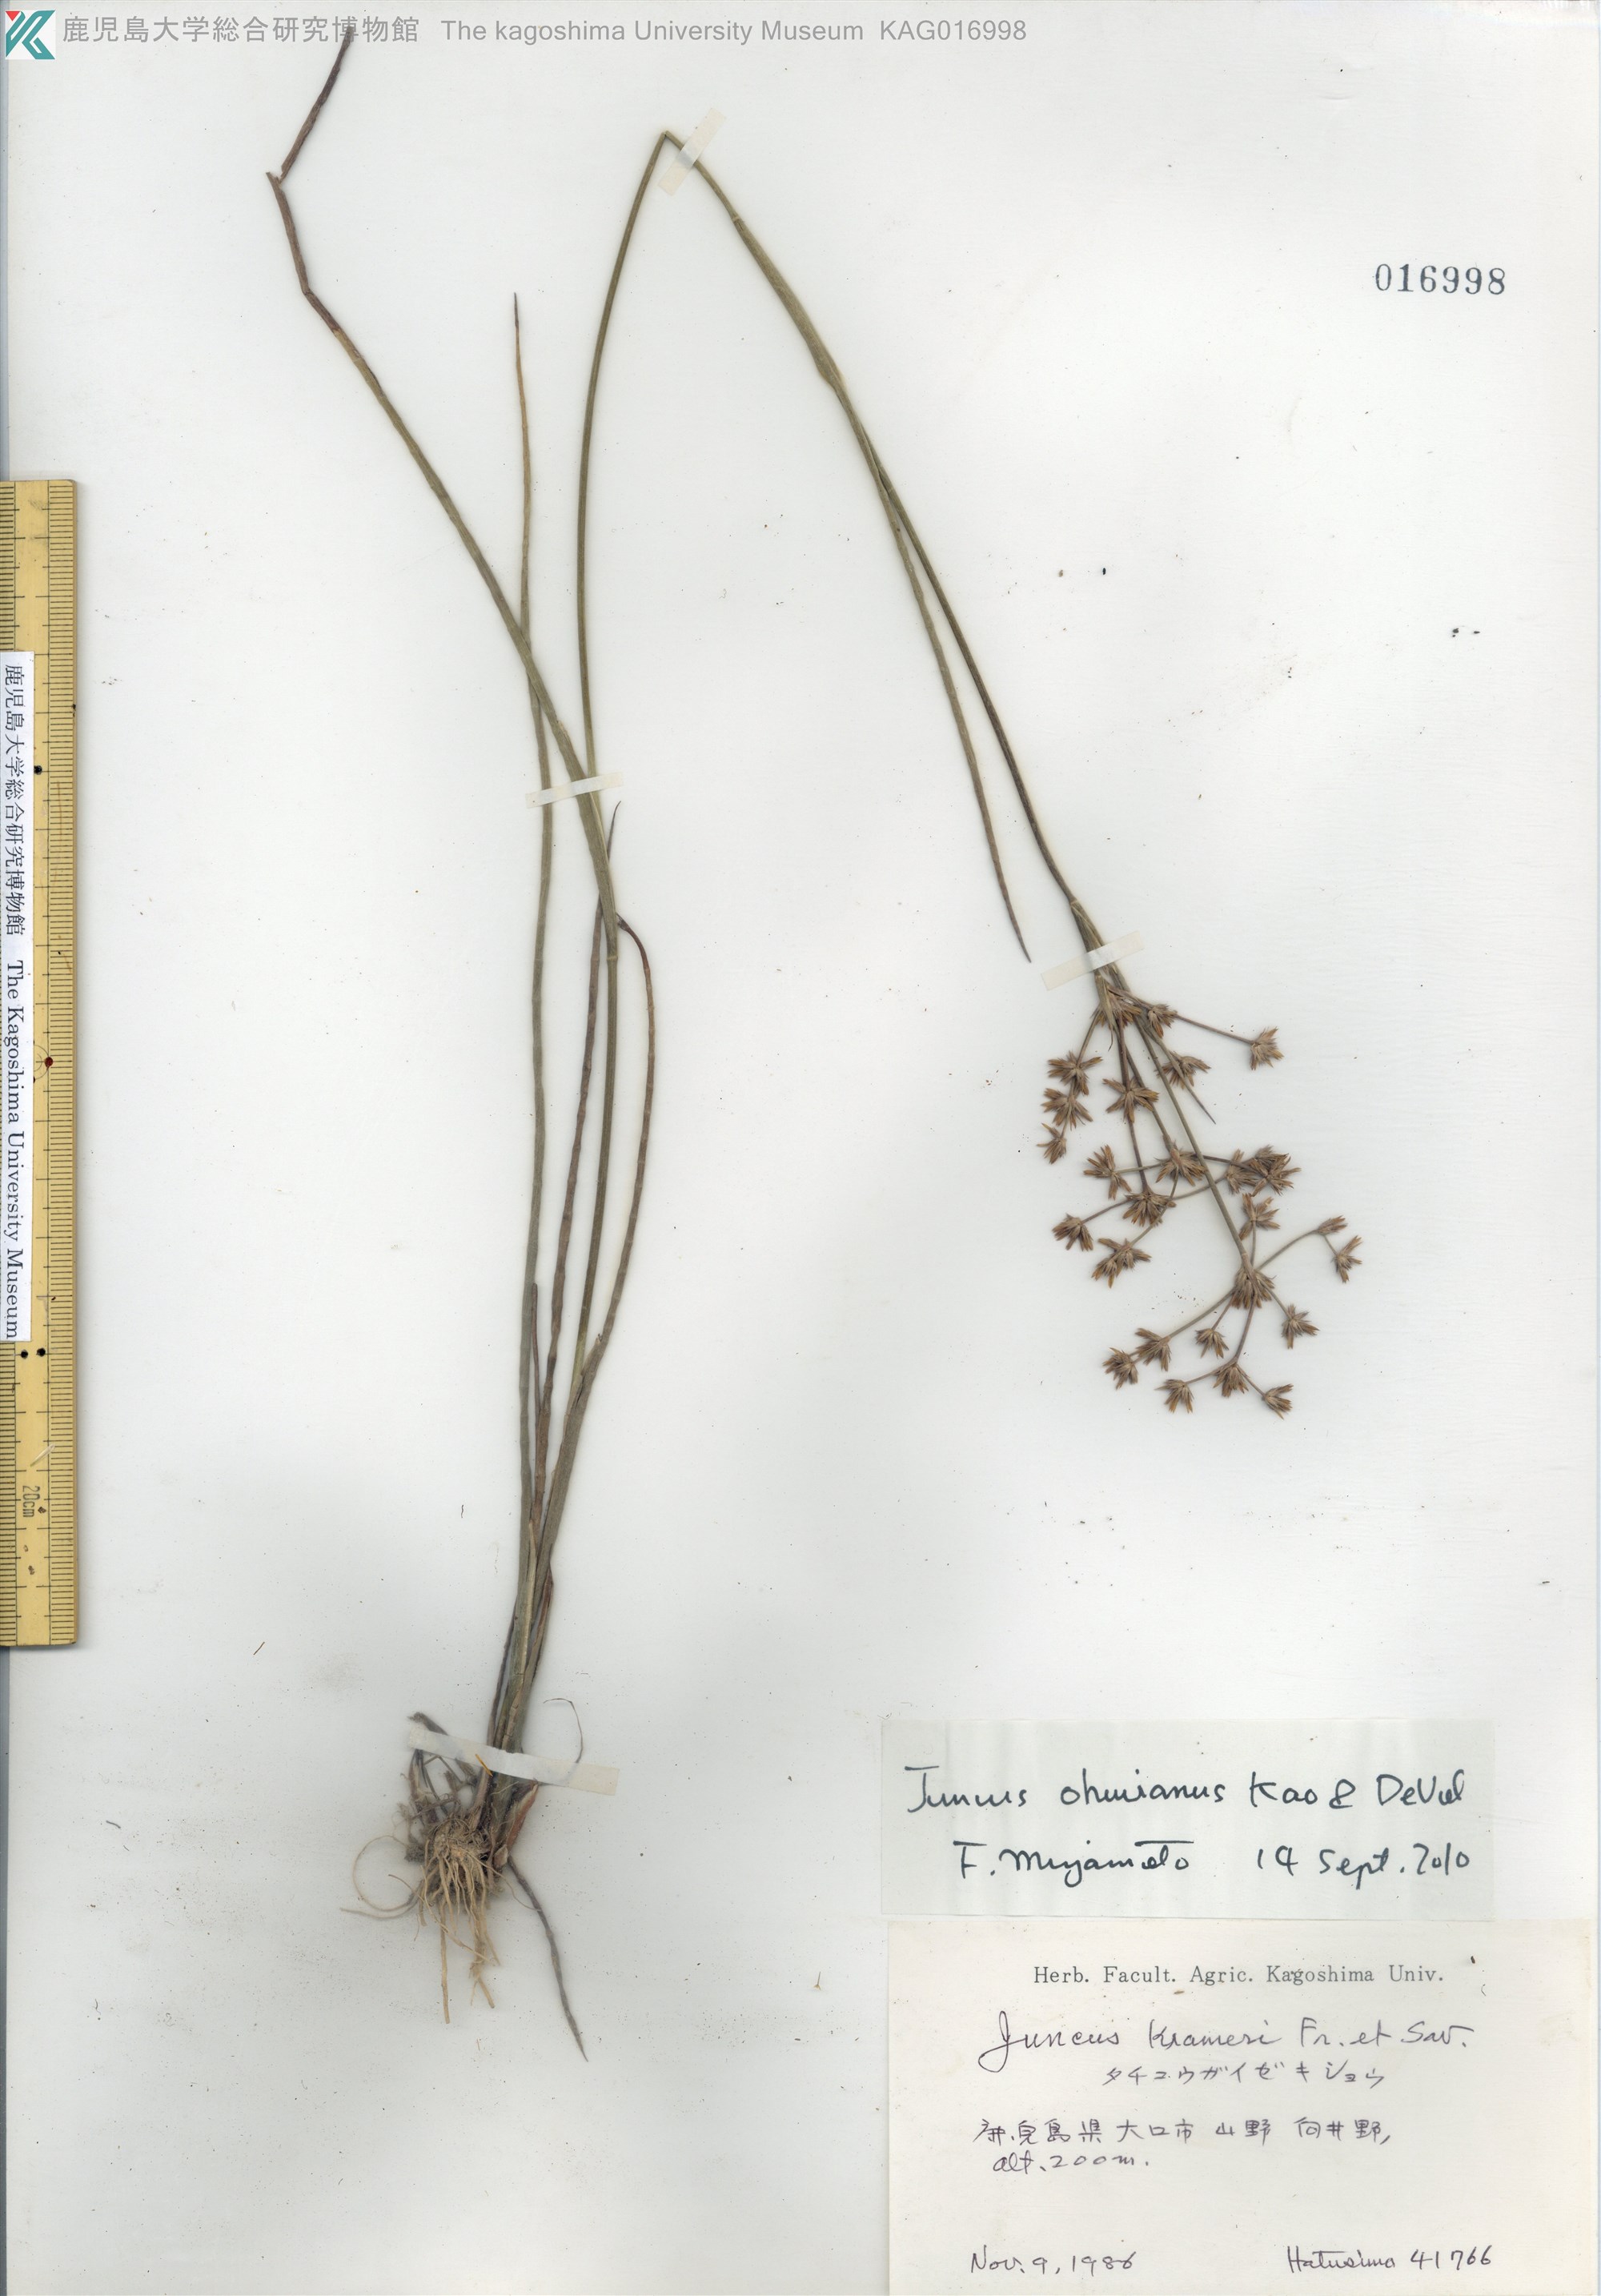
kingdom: Plantae
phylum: Tracheophyta
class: Liliopsida
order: Poales
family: Juncaceae
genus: Juncus
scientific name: Juncus wallichianus
